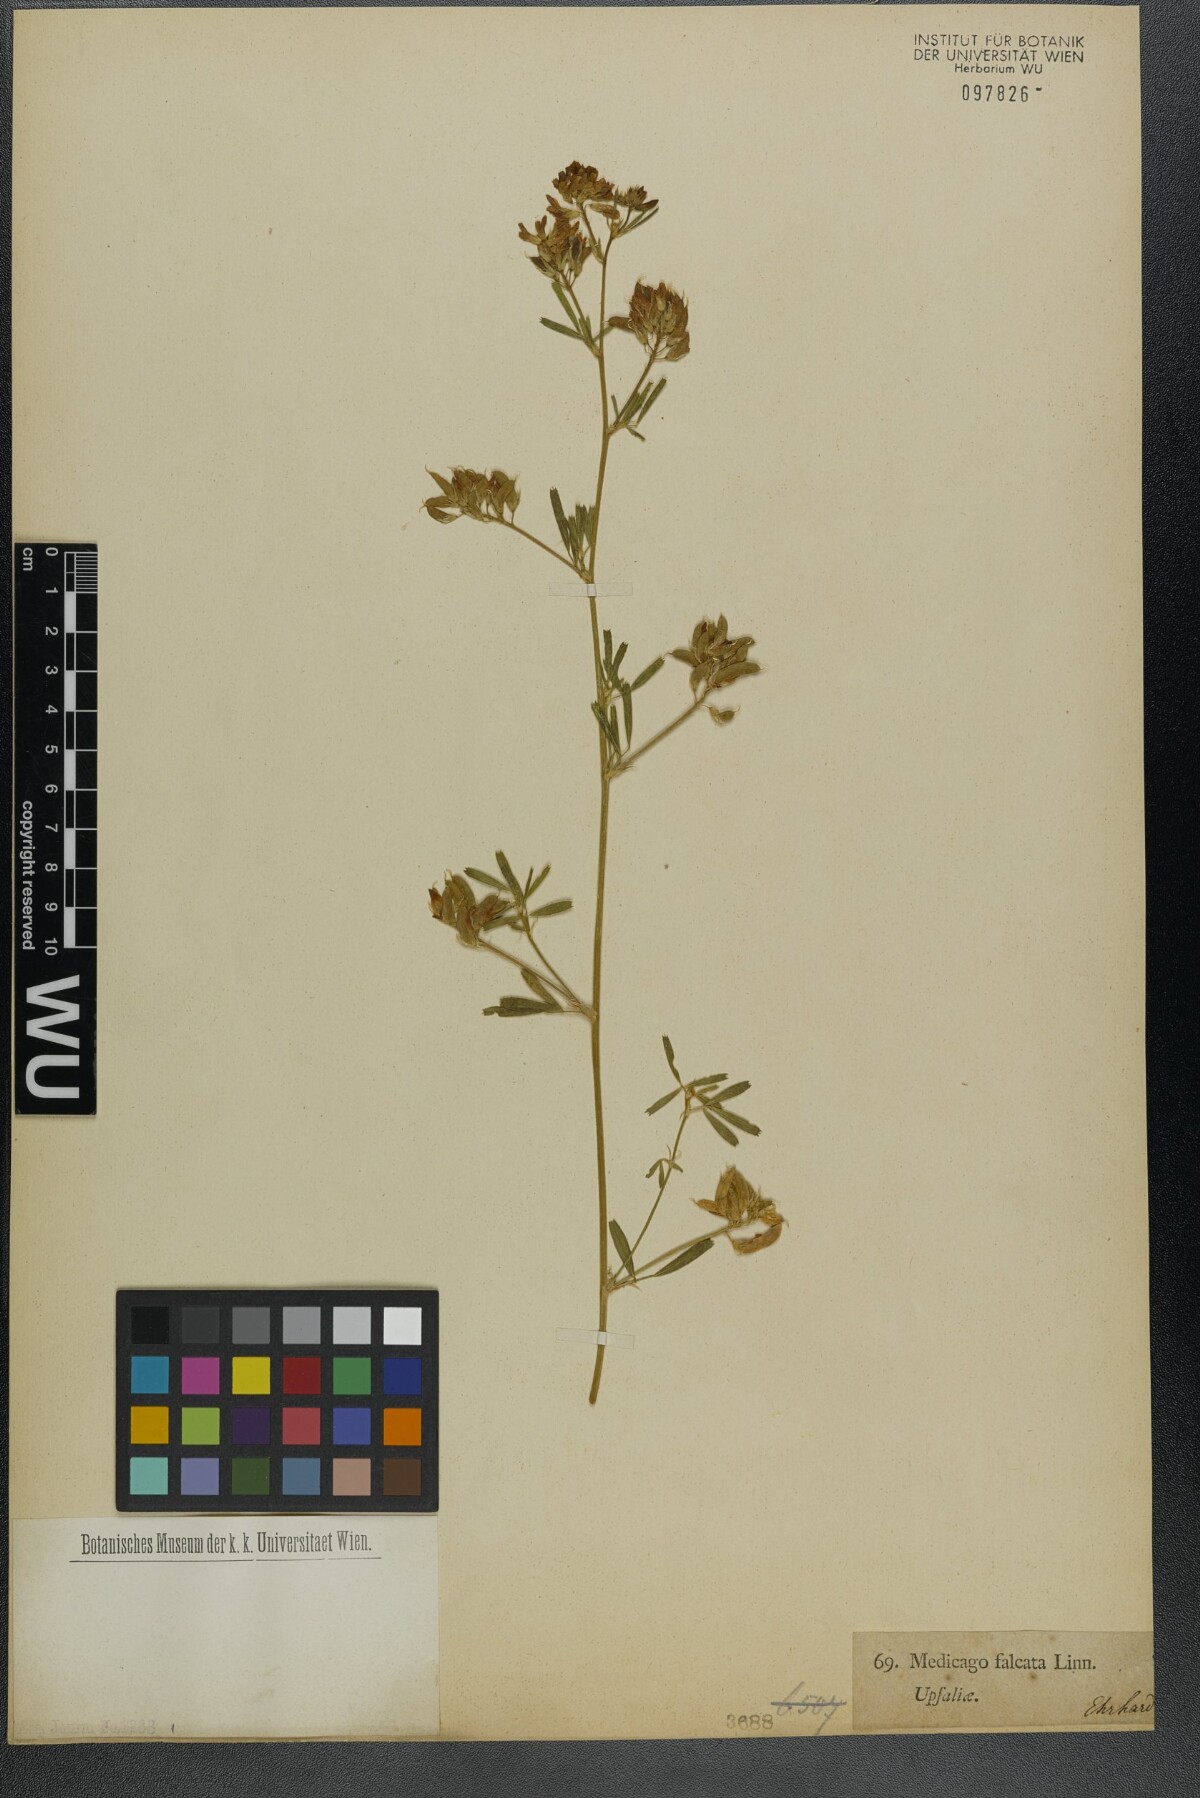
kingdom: Plantae
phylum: Tracheophyta
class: Magnoliopsida
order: Fabales
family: Fabaceae
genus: Medicago
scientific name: Medicago falcata
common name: Sickle medick
